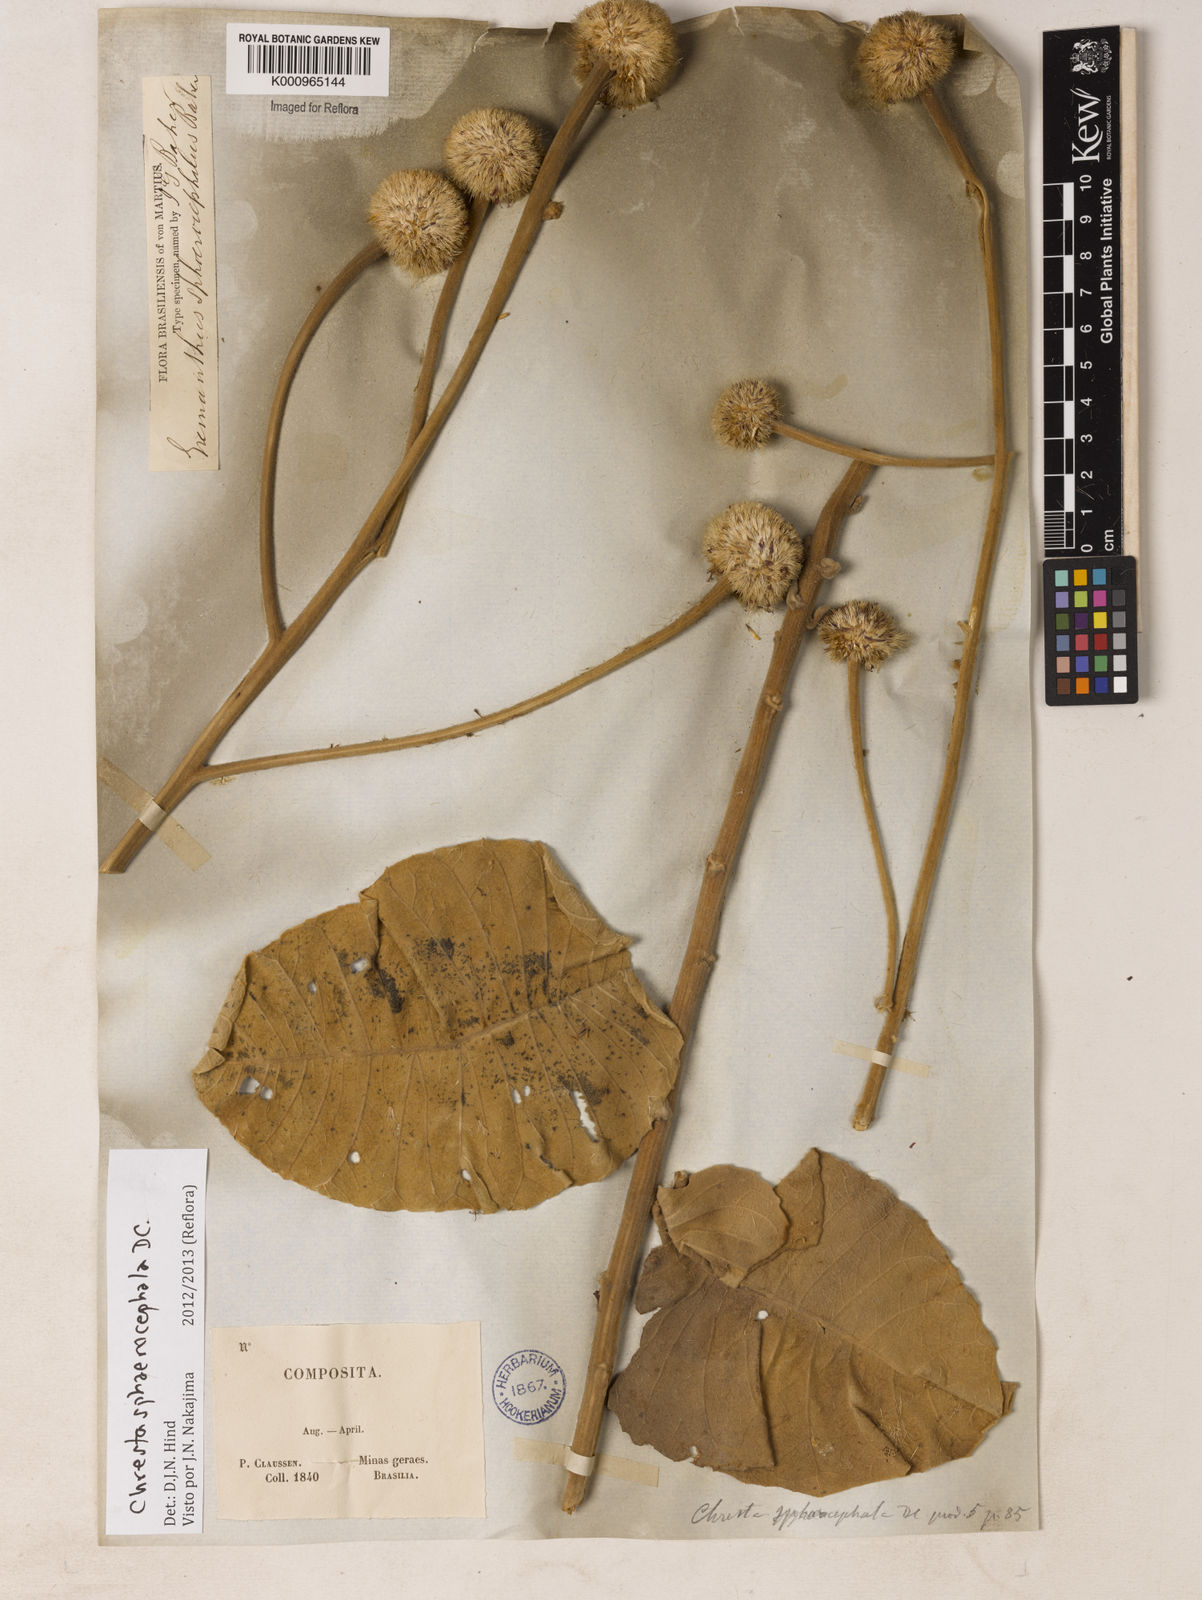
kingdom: Plantae
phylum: Tracheophyta
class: Magnoliopsida
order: Asterales
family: Asteraceae
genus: Chresta
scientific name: Chresta sphaerocephala
